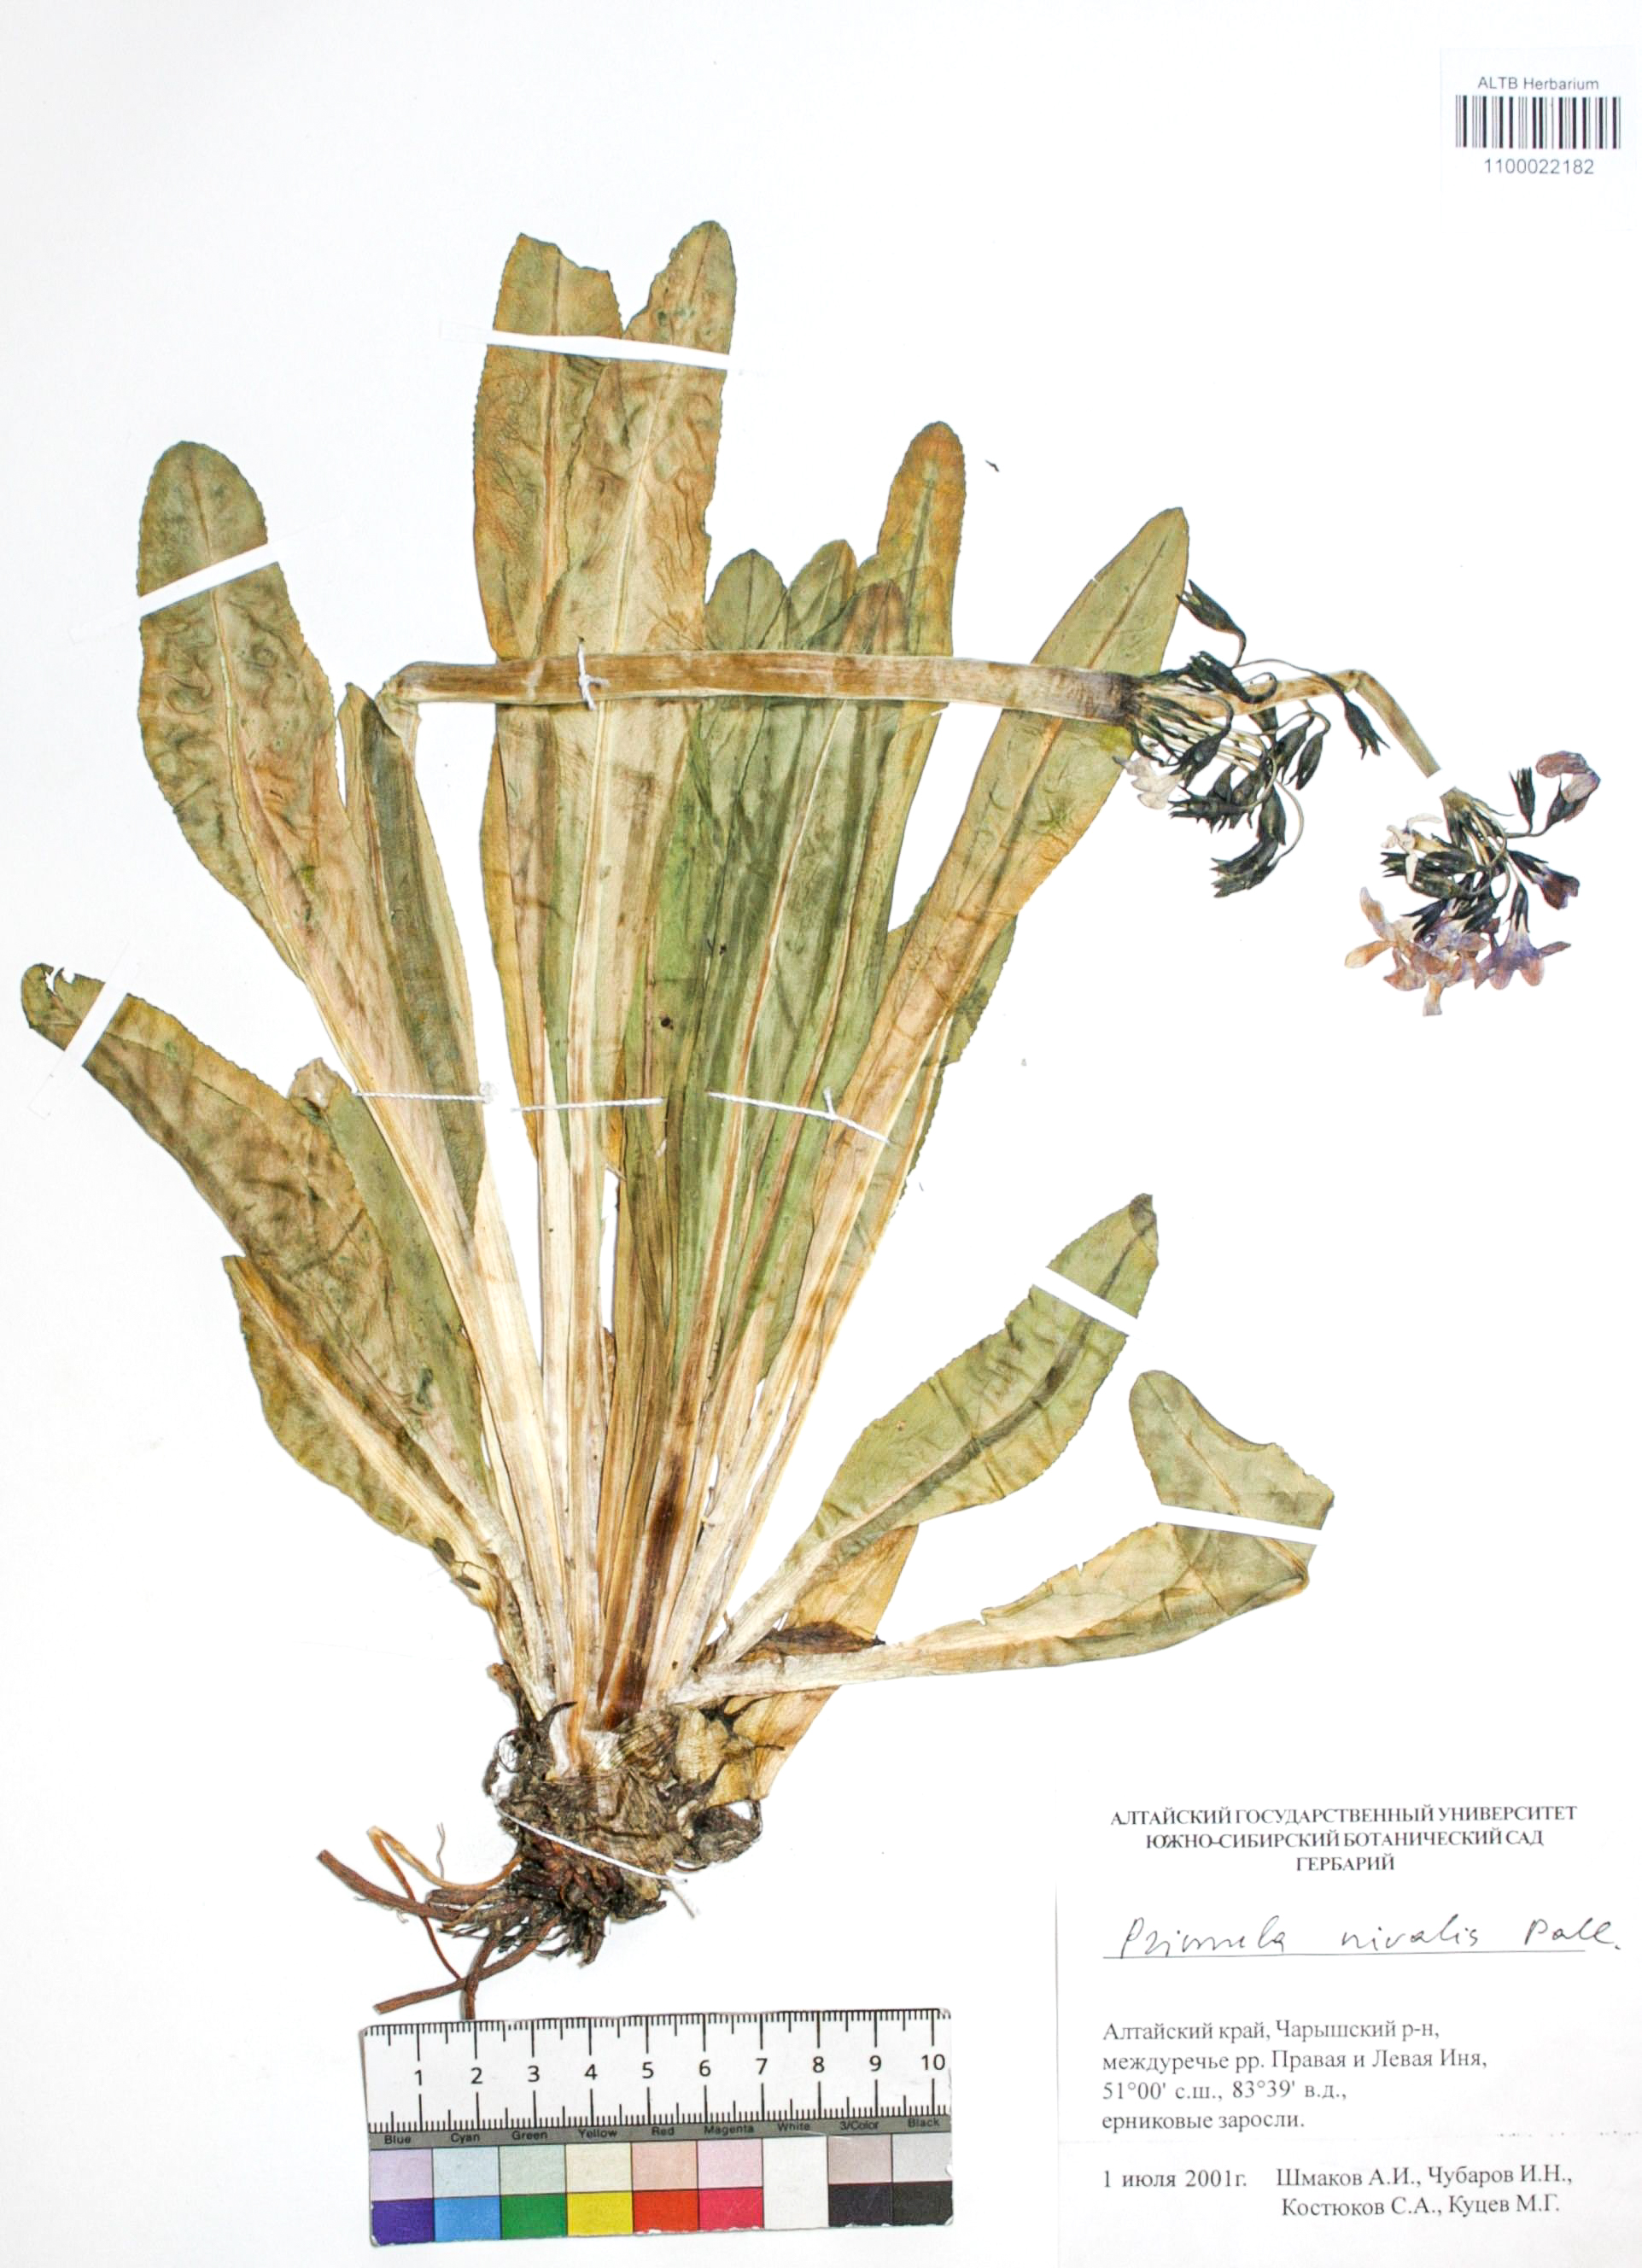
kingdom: Plantae
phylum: Tracheophyta
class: Magnoliopsida
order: Ericales
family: Primulaceae
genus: Primula
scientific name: Primula nivalis
